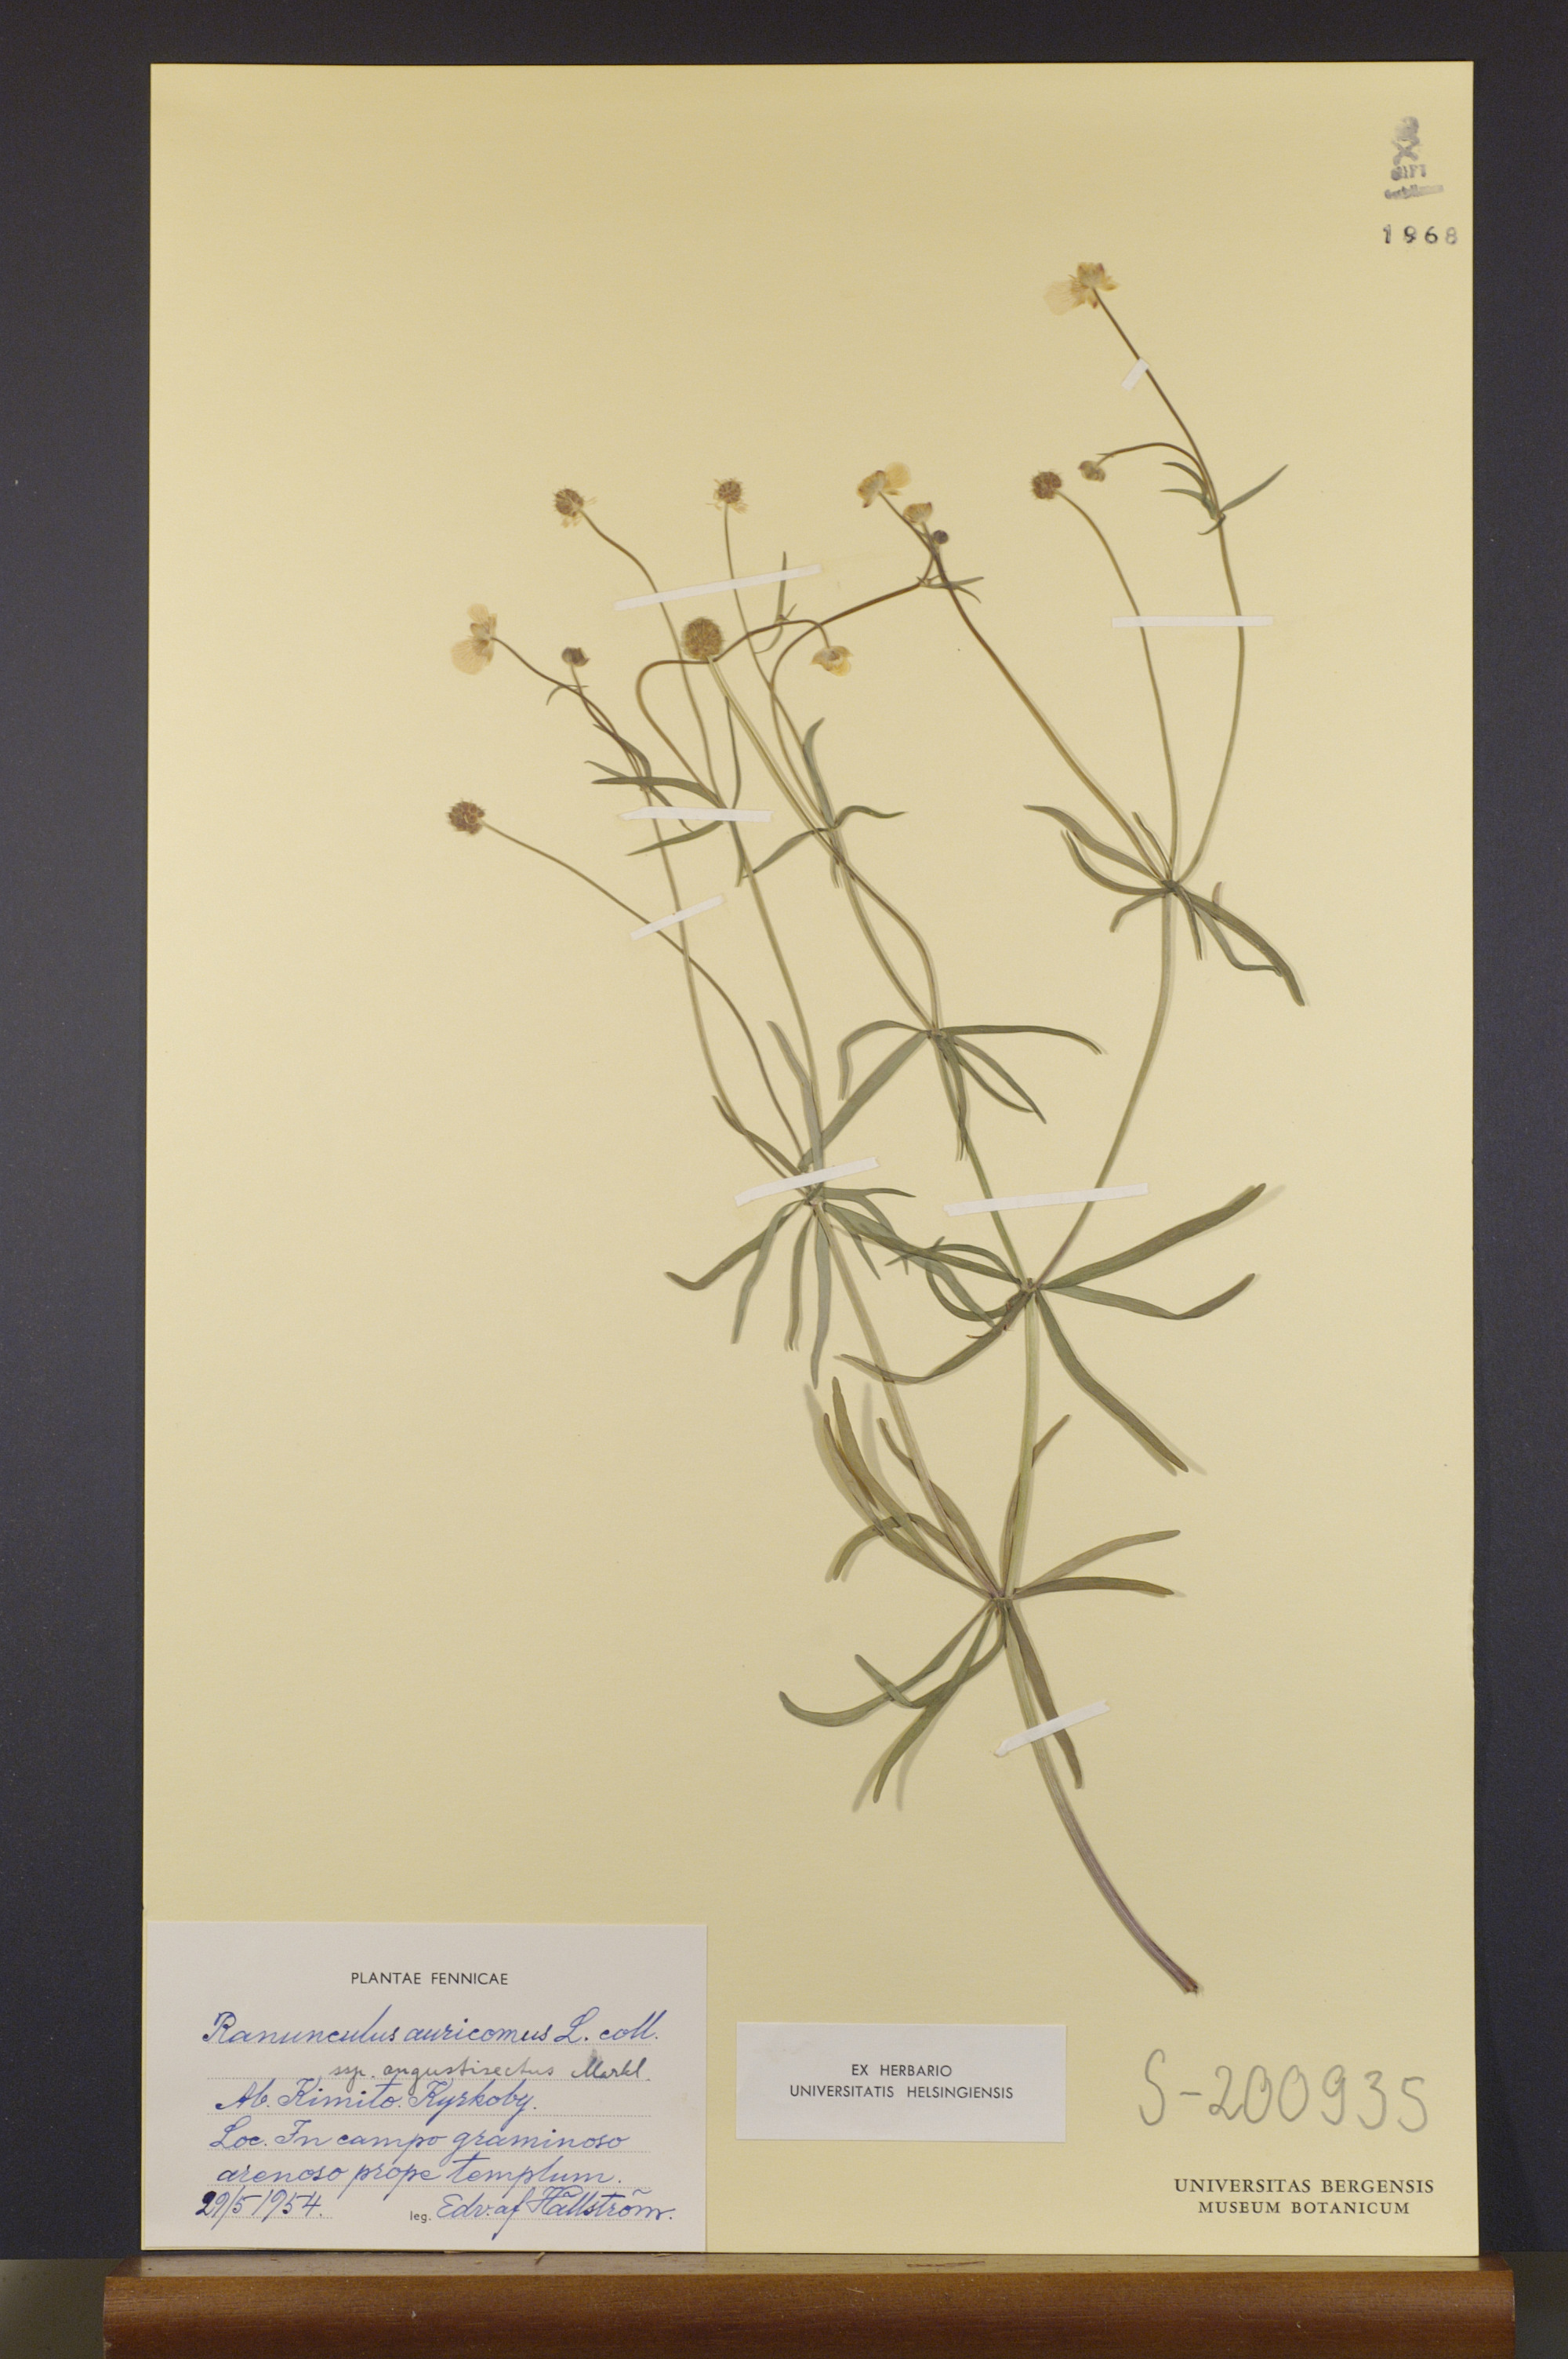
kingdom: Plantae
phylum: Tracheophyta
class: Magnoliopsida
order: Ranunculales
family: Ranunculaceae
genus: Ranunculus
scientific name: Ranunculus cosmophyllus
